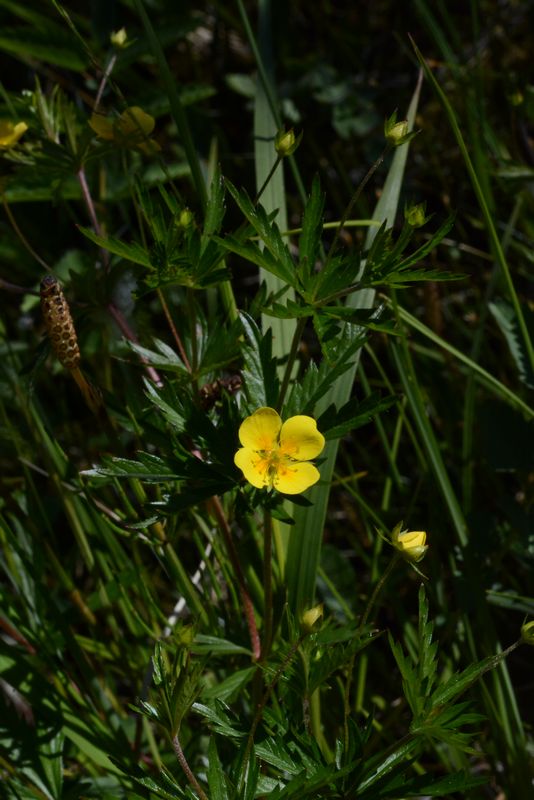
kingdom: Plantae
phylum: Tracheophyta
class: Magnoliopsida
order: Rosales
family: Rosaceae
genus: Potentilla
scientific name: Potentilla erecta
